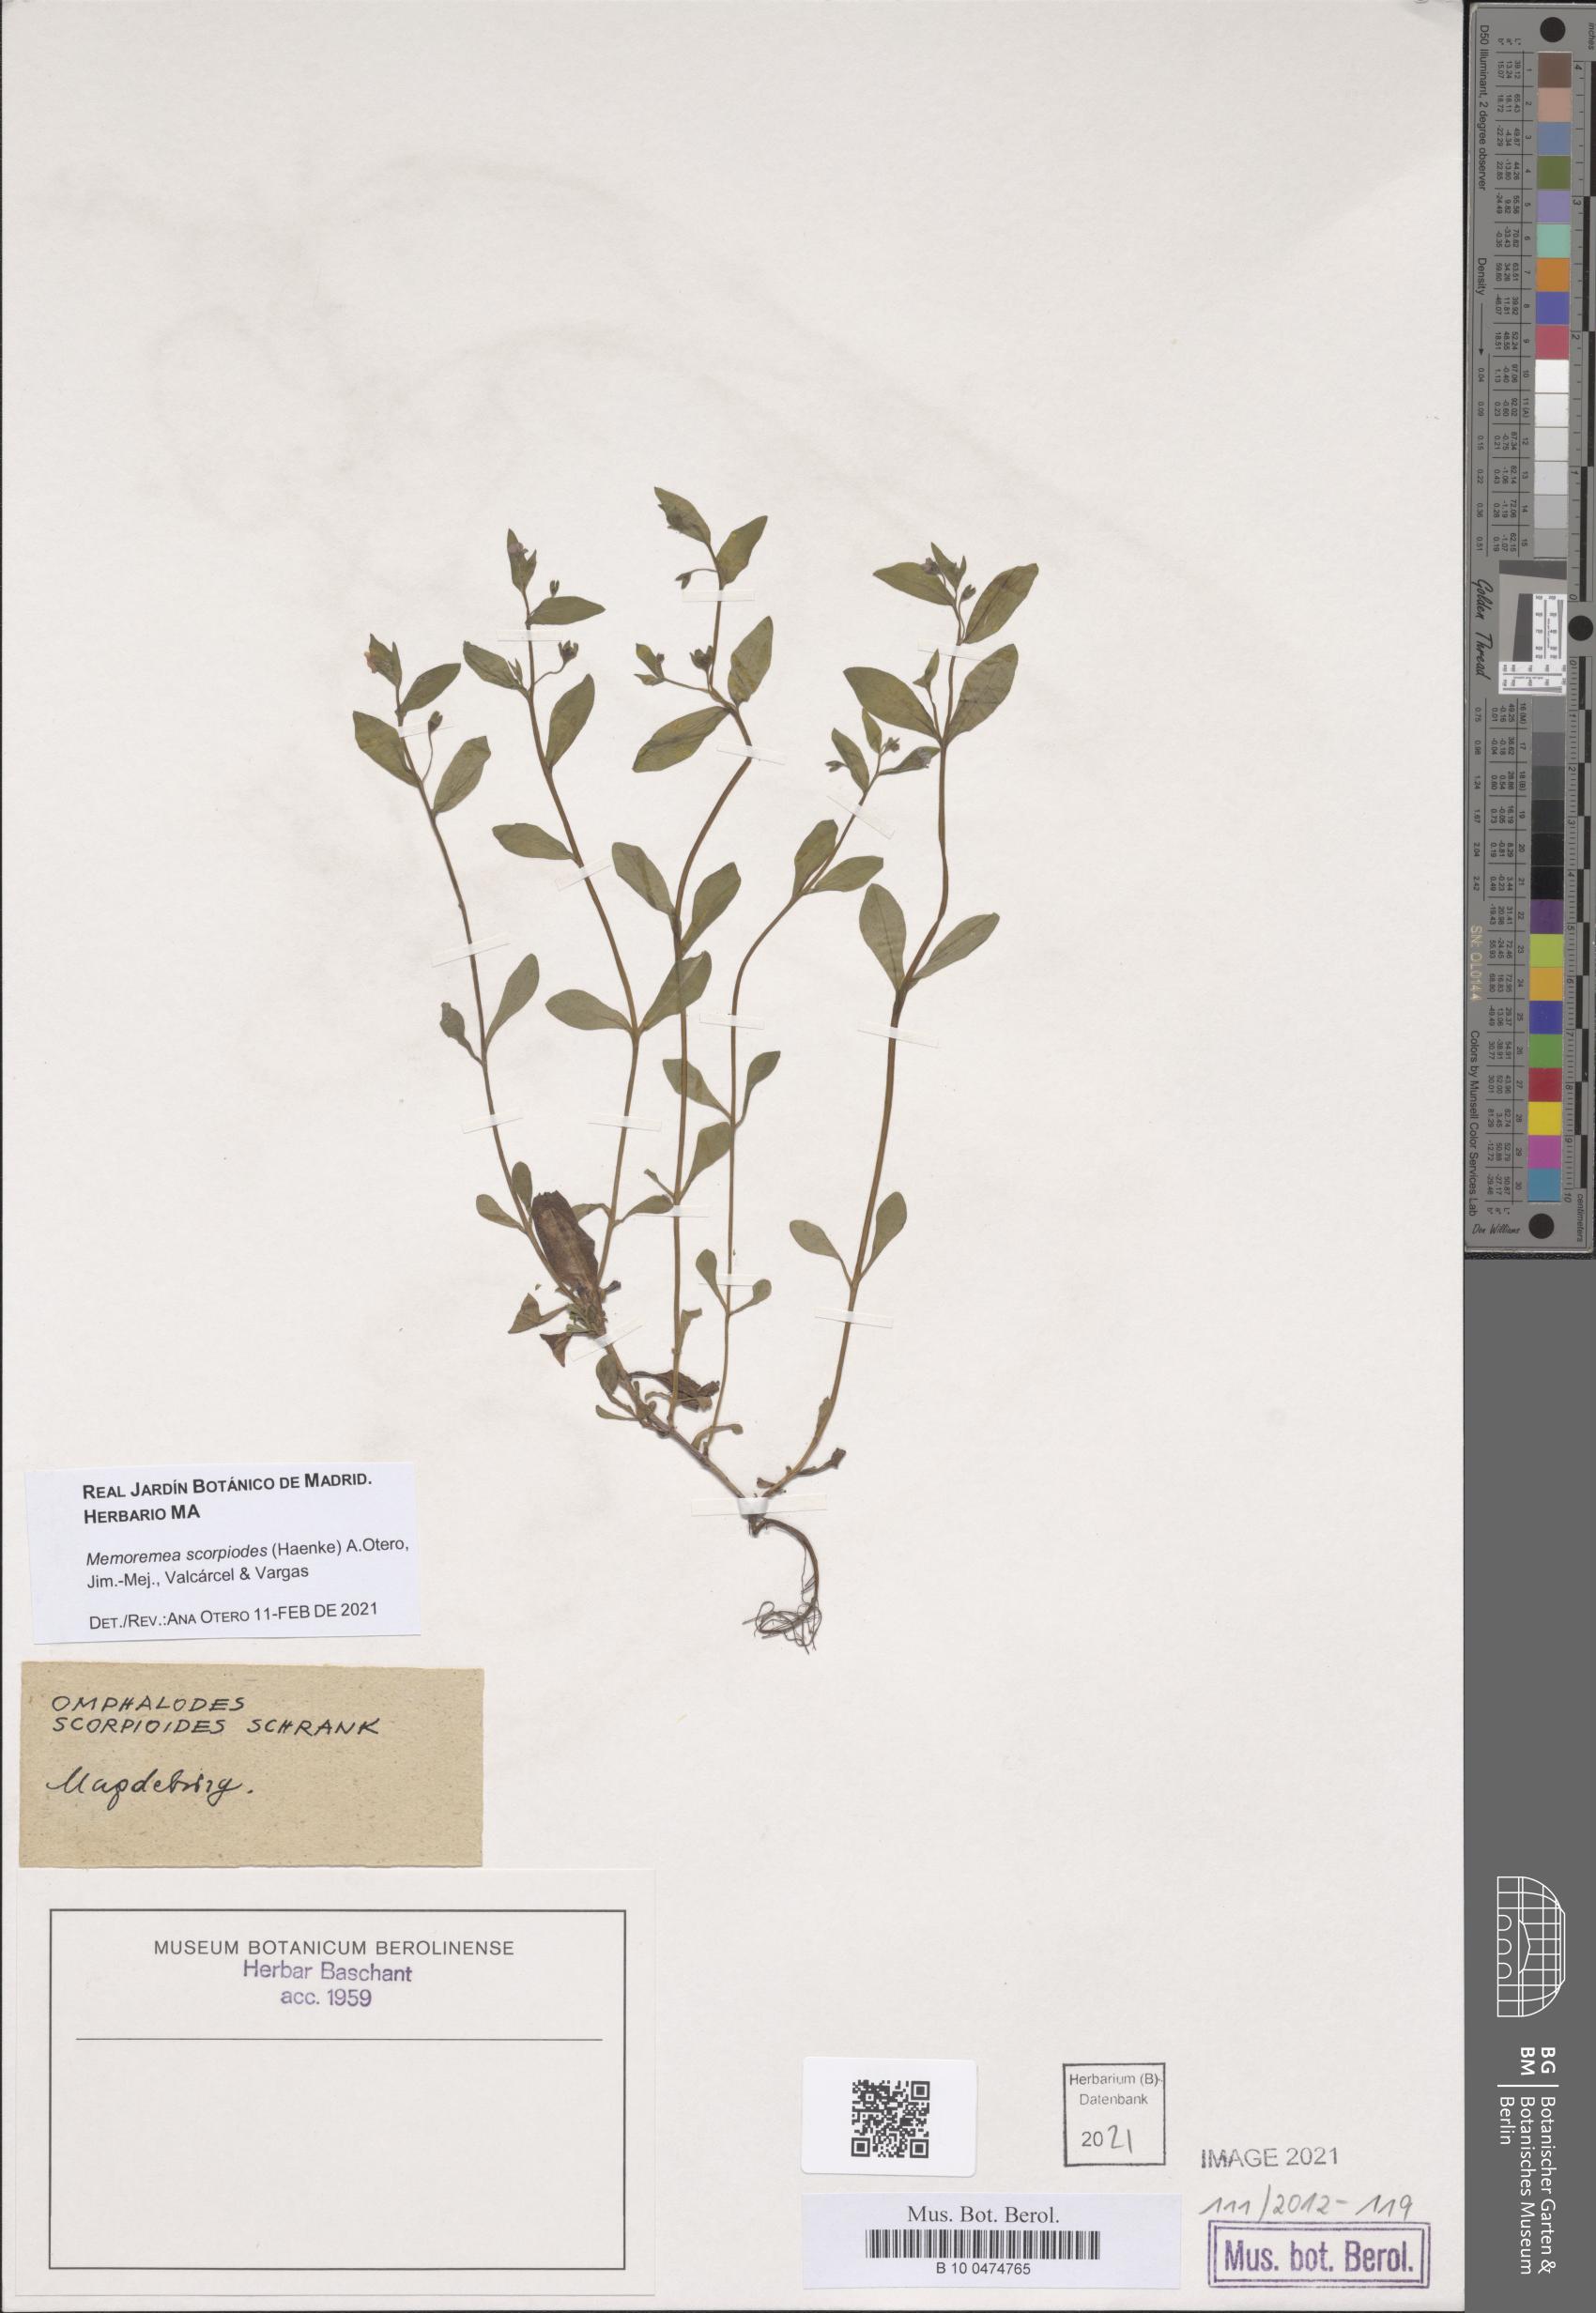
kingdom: Plantae
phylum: Tracheophyta
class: Magnoliopsida
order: Boraginales
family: Boraginaceae
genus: Memoremea
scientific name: Memoremea scorpioides
